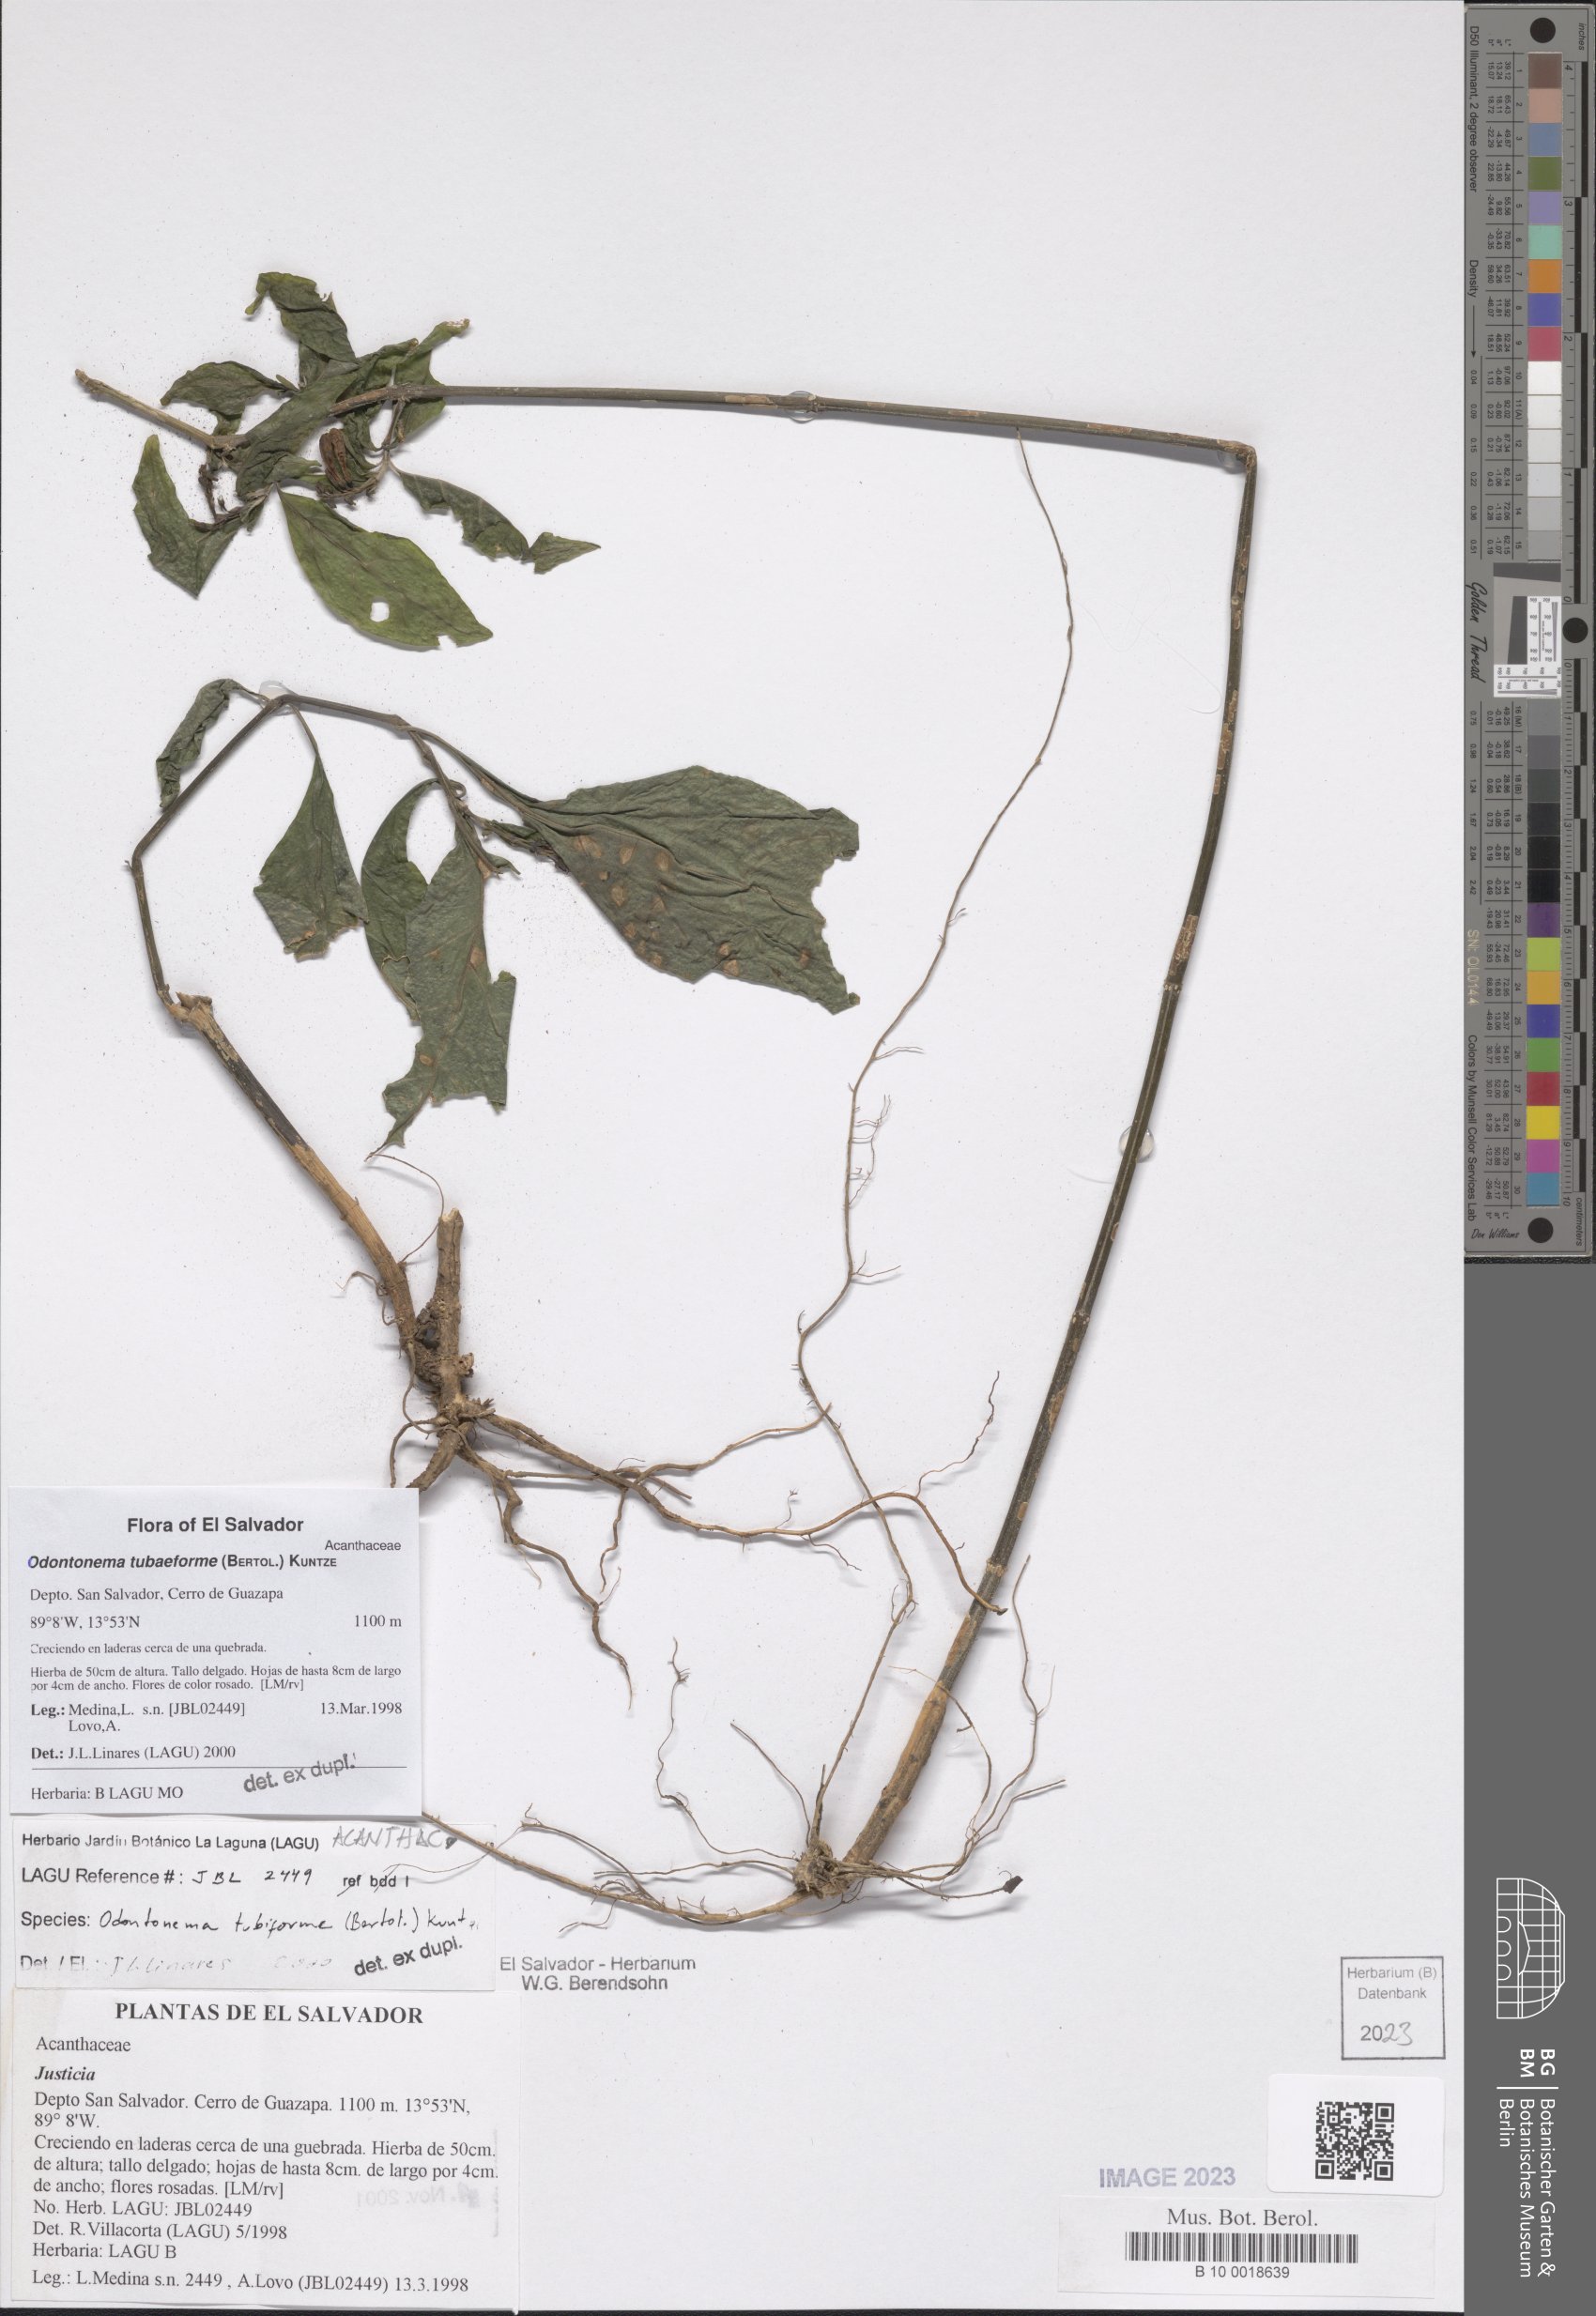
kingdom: Plantae
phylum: Tracheophyta
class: Magnoliopsida
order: Lamiales
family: Acanthaceae
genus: Odontonema
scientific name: Odontonema tubaeforme
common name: Firespike
